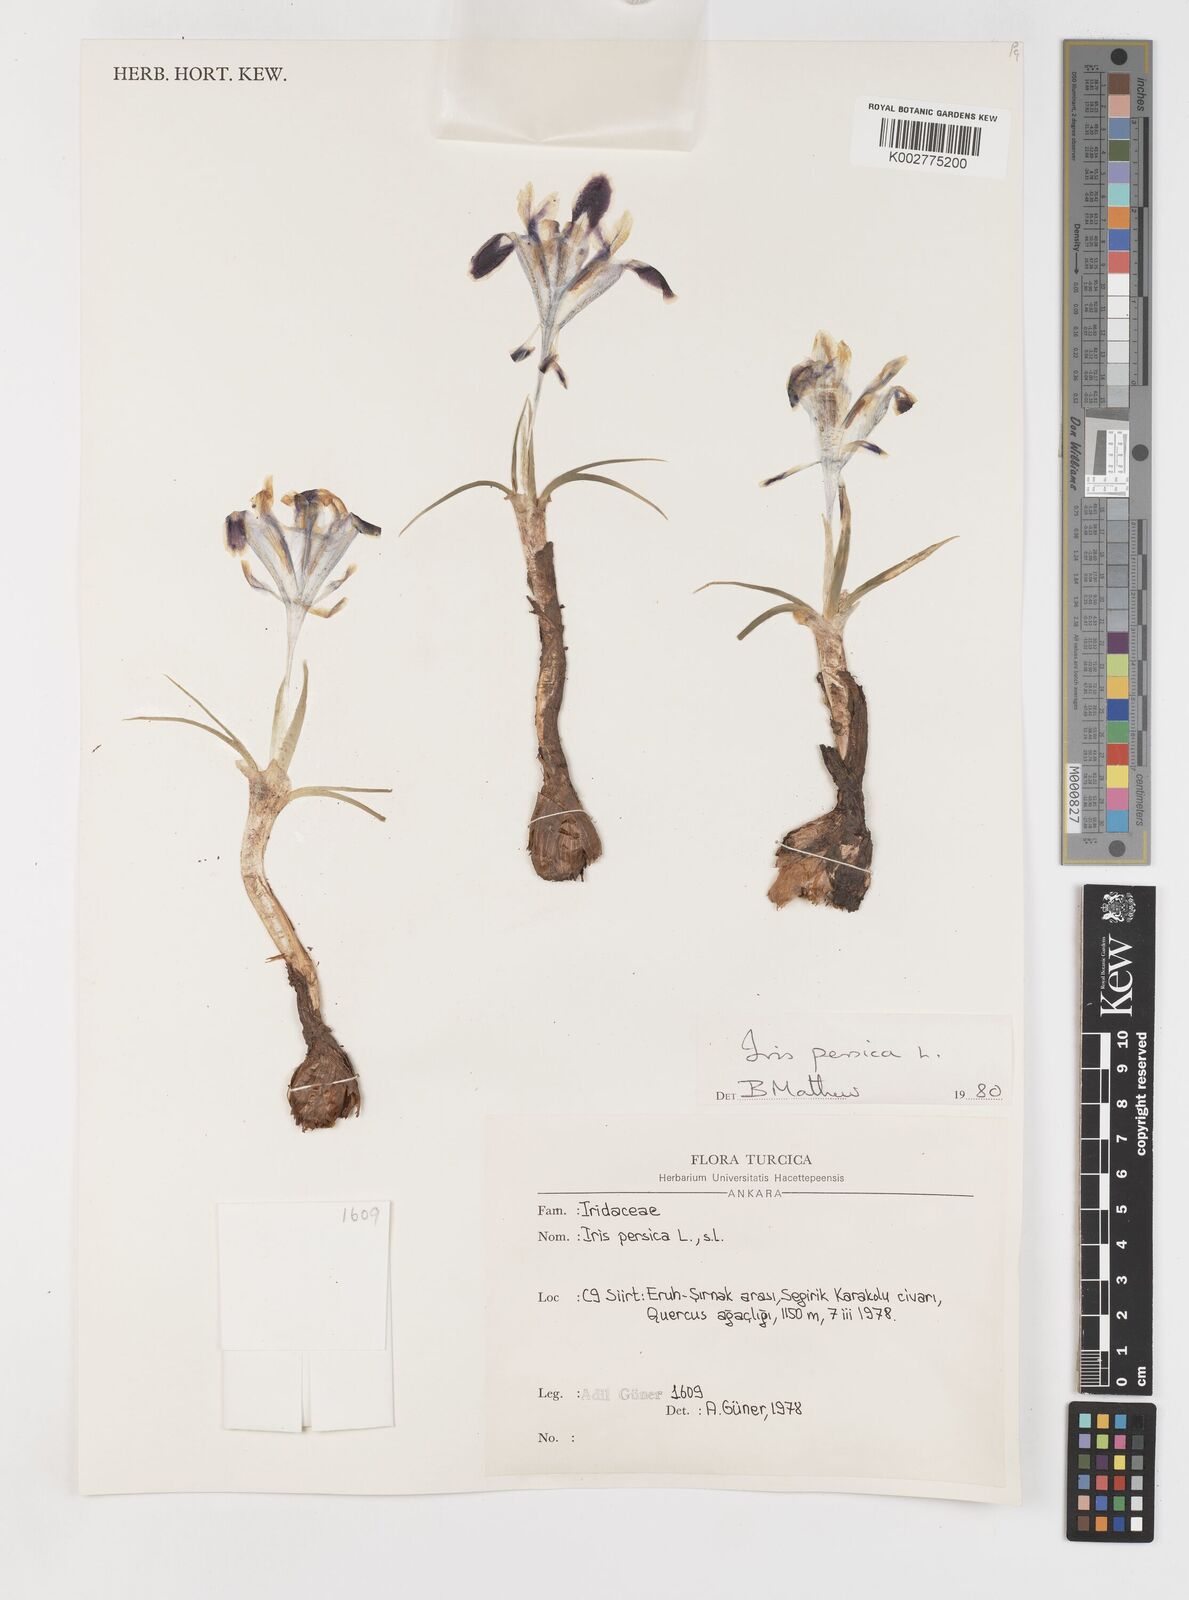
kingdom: Plantae
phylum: Tracheophyta
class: Liliopsida
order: Asparagales
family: Iridaceae
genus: Iris
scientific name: Iris persica
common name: Persian iris
